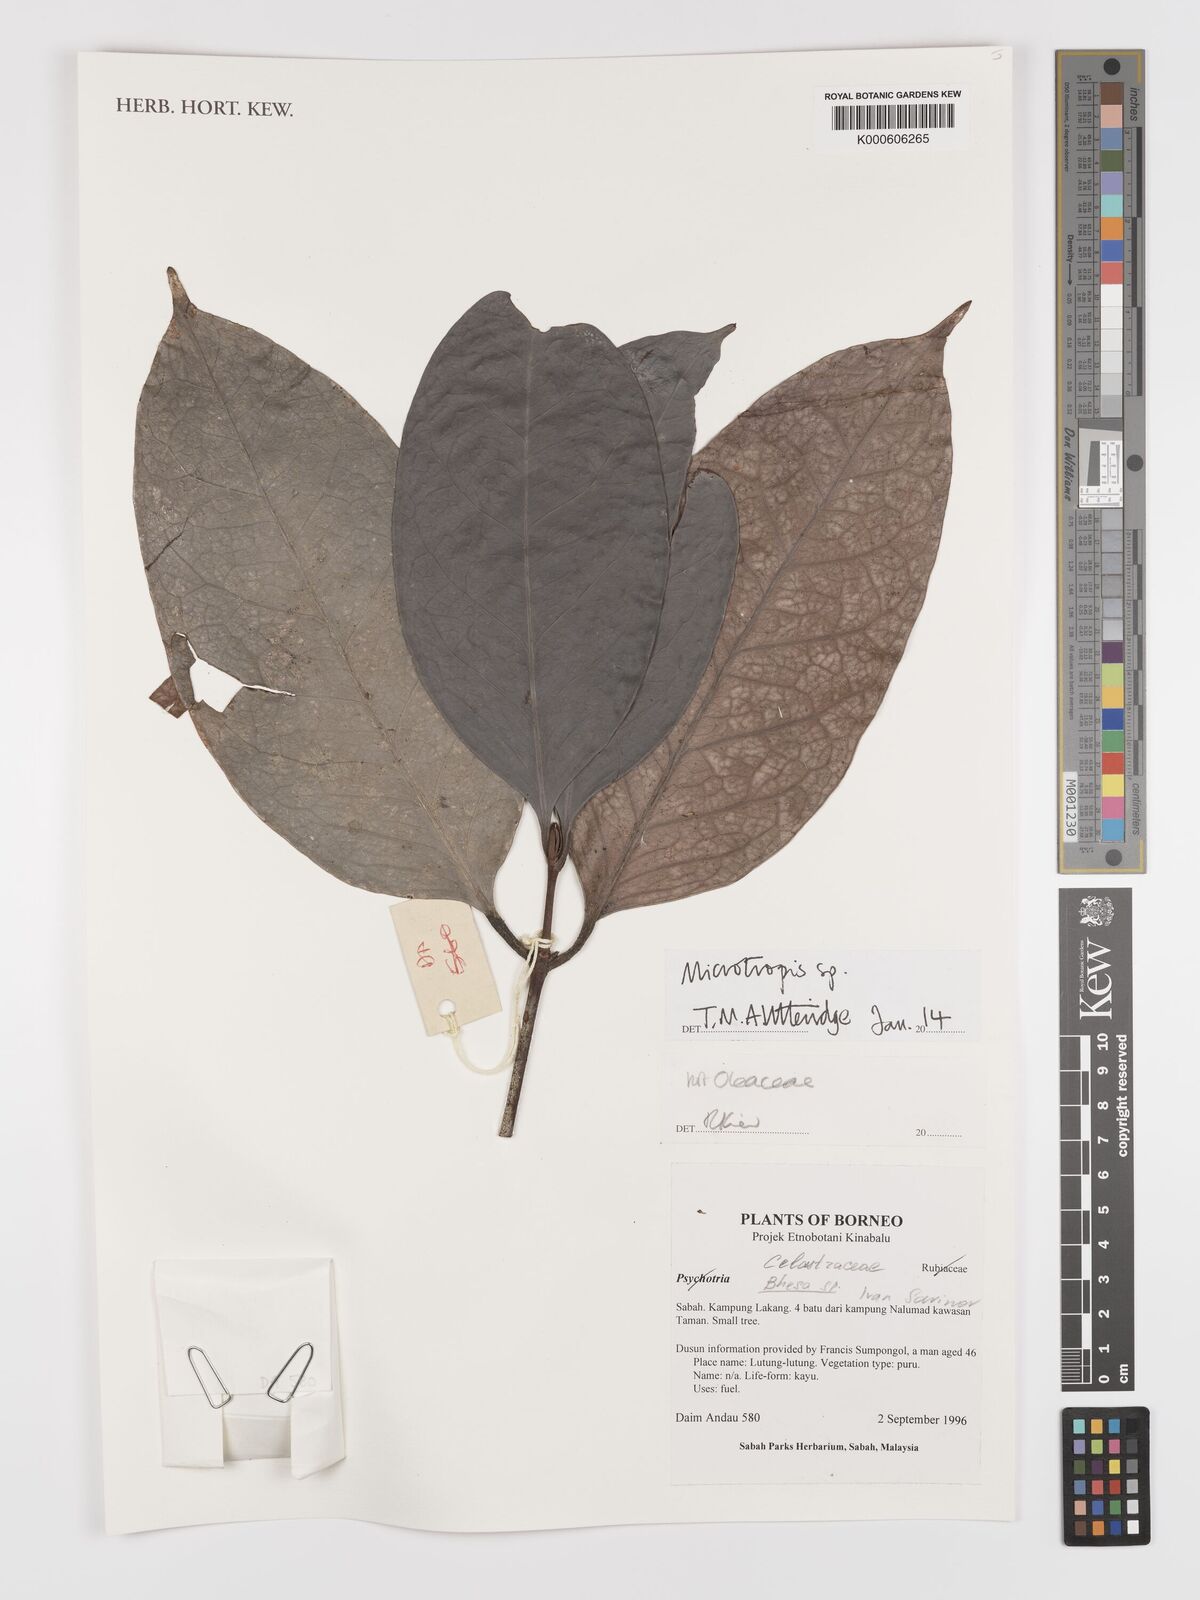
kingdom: Plantae
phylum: Tracheophyta
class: Magnoliopsida
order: Celastrales
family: Celastraceae
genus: Microtropis
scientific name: Microtropis
